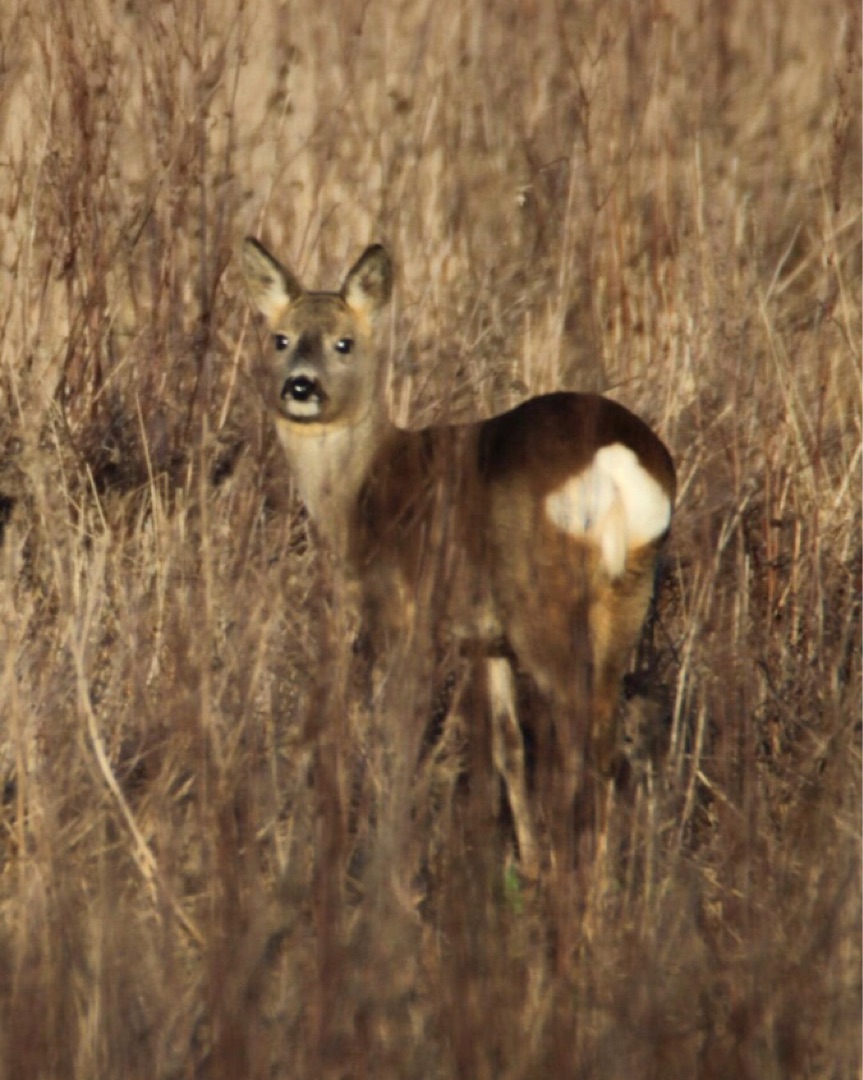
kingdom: Animalia
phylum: Chordata
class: Mammalia
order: Artiodactyla
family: Cervidae
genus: Capreolus
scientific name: Capreolus capreolus
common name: Rådyr
